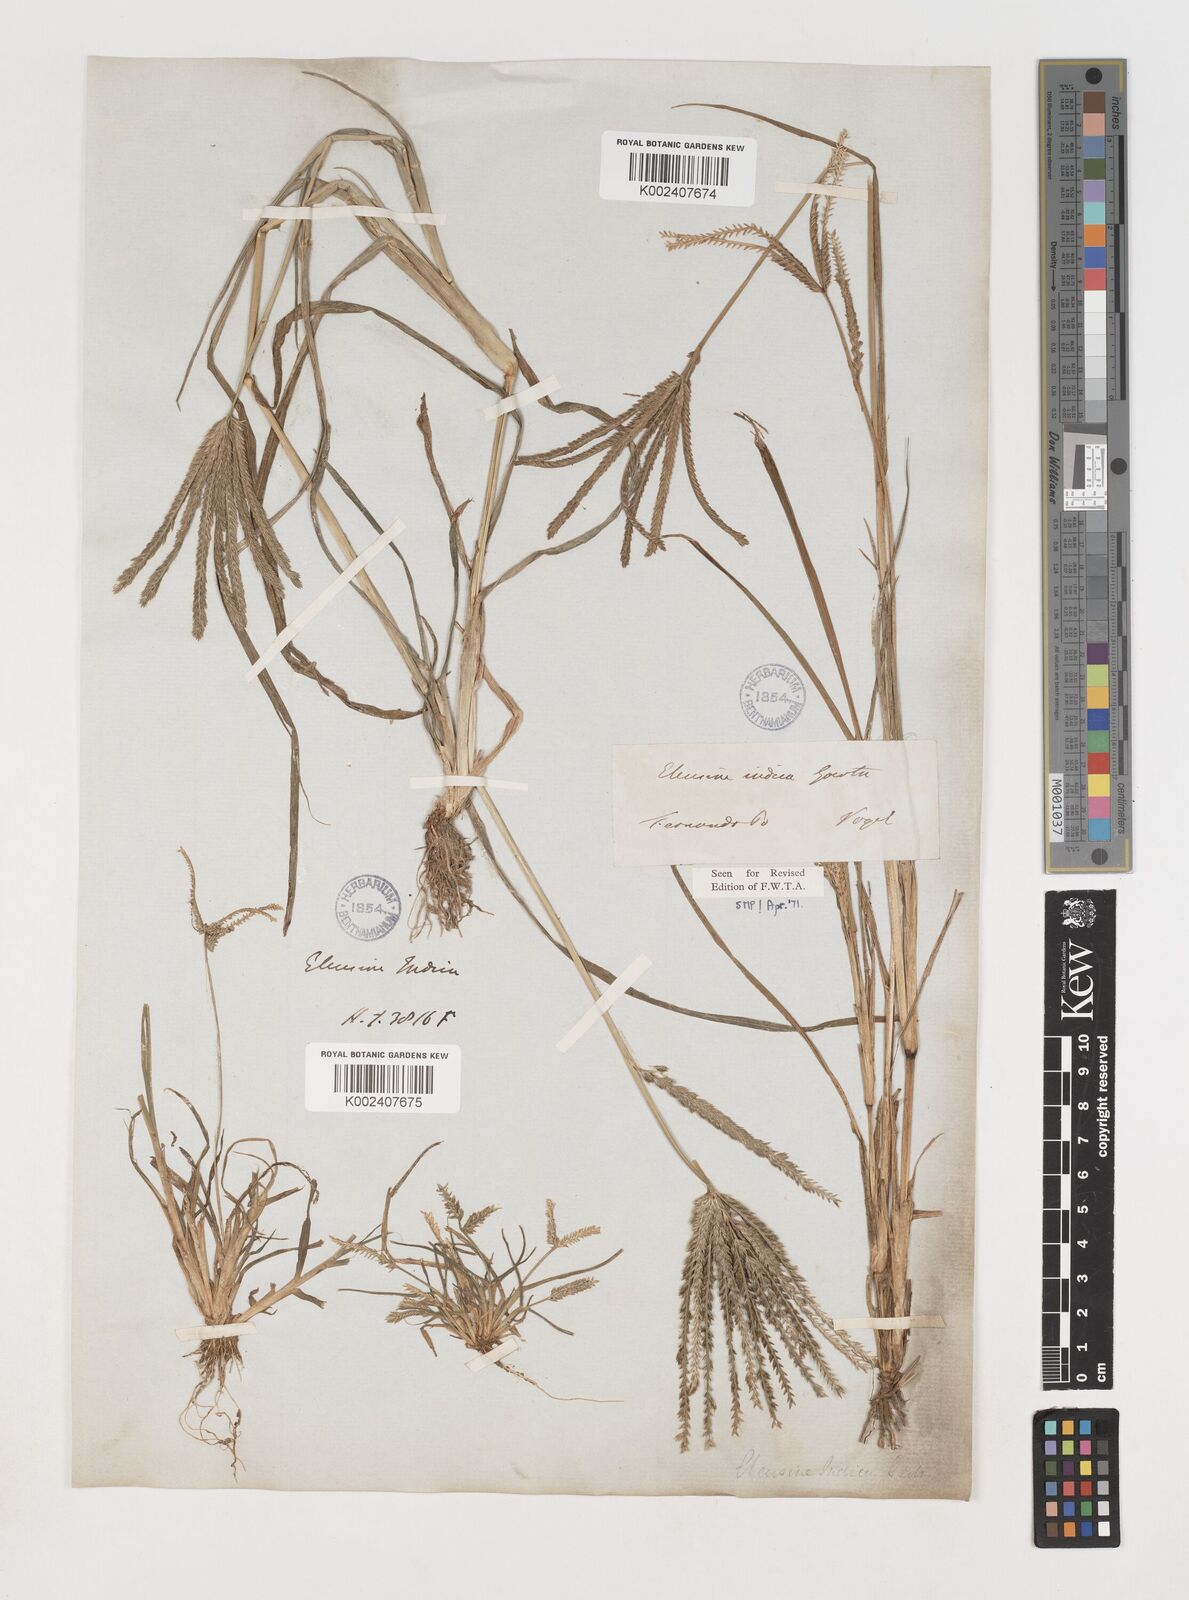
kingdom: Plantae
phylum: Tracheophyta
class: Liliopsida
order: Poales
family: Poaceae
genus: Eleusine
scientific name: Eleusine indica
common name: Yard-grass
